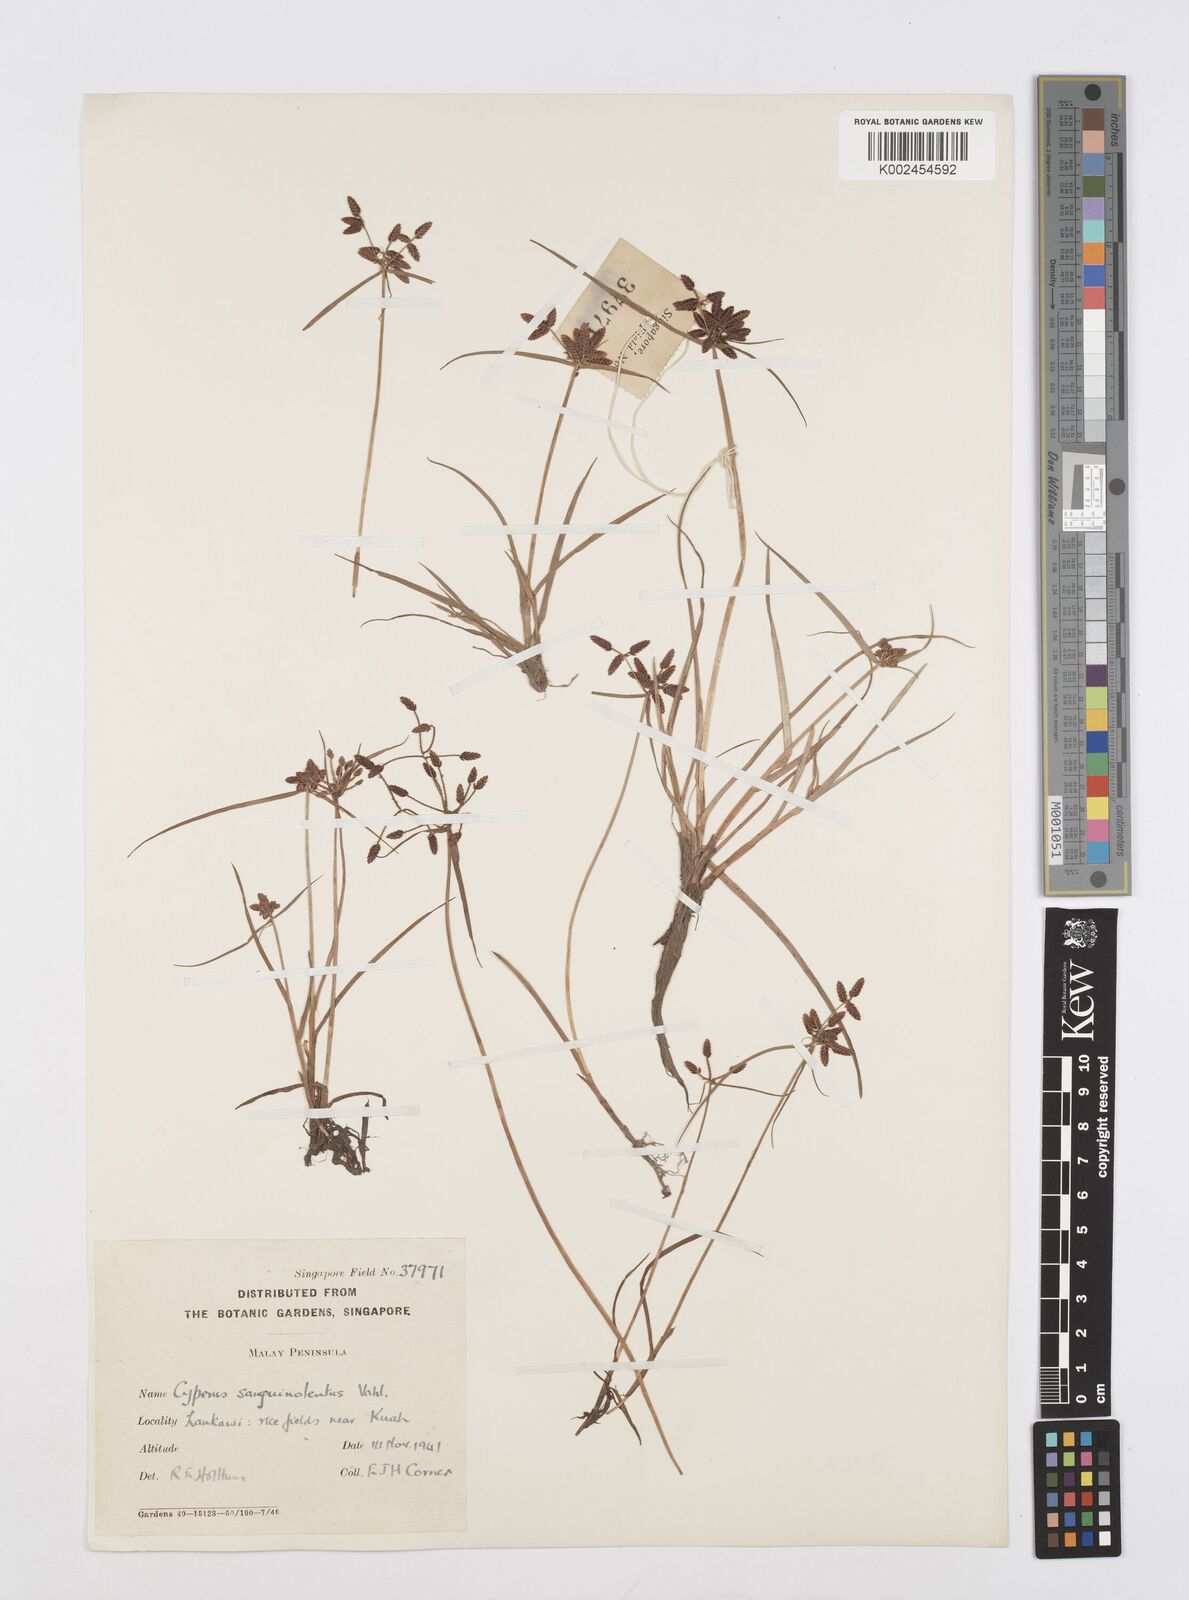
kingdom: Plantae
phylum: Tracheophyta
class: Liliopsida
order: Poales
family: Cyperaceae
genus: Cyperus
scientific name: Cyperus sanguinolentus
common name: Purpleglume flatsedge
